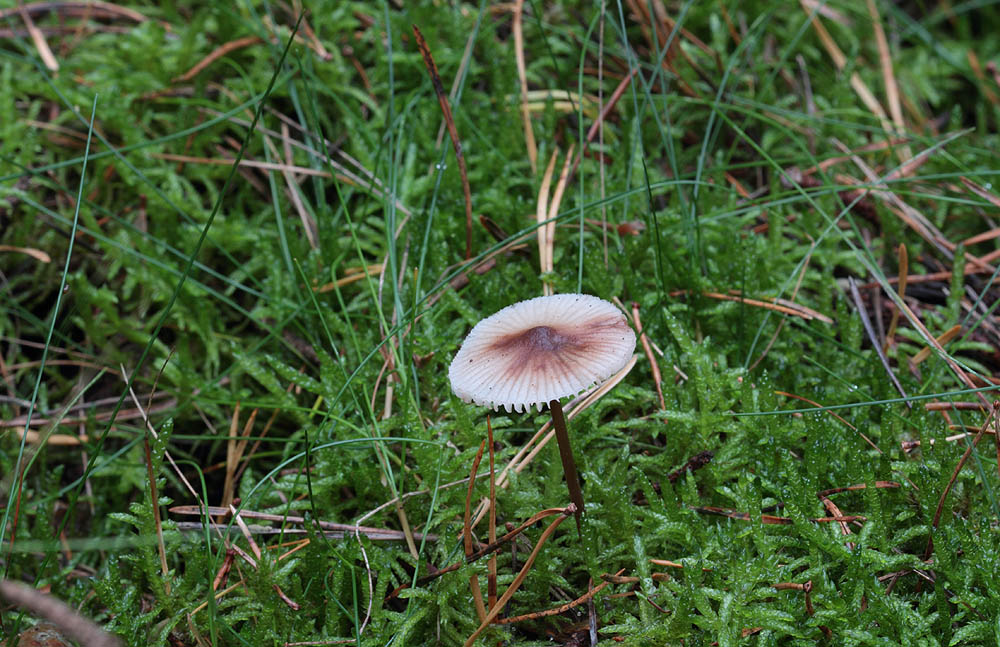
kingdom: Fungi
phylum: Basidiomycota
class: Agaricomycetes
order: Agaricales
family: Mycenaceae
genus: Mycena
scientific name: Mycena zephirus
